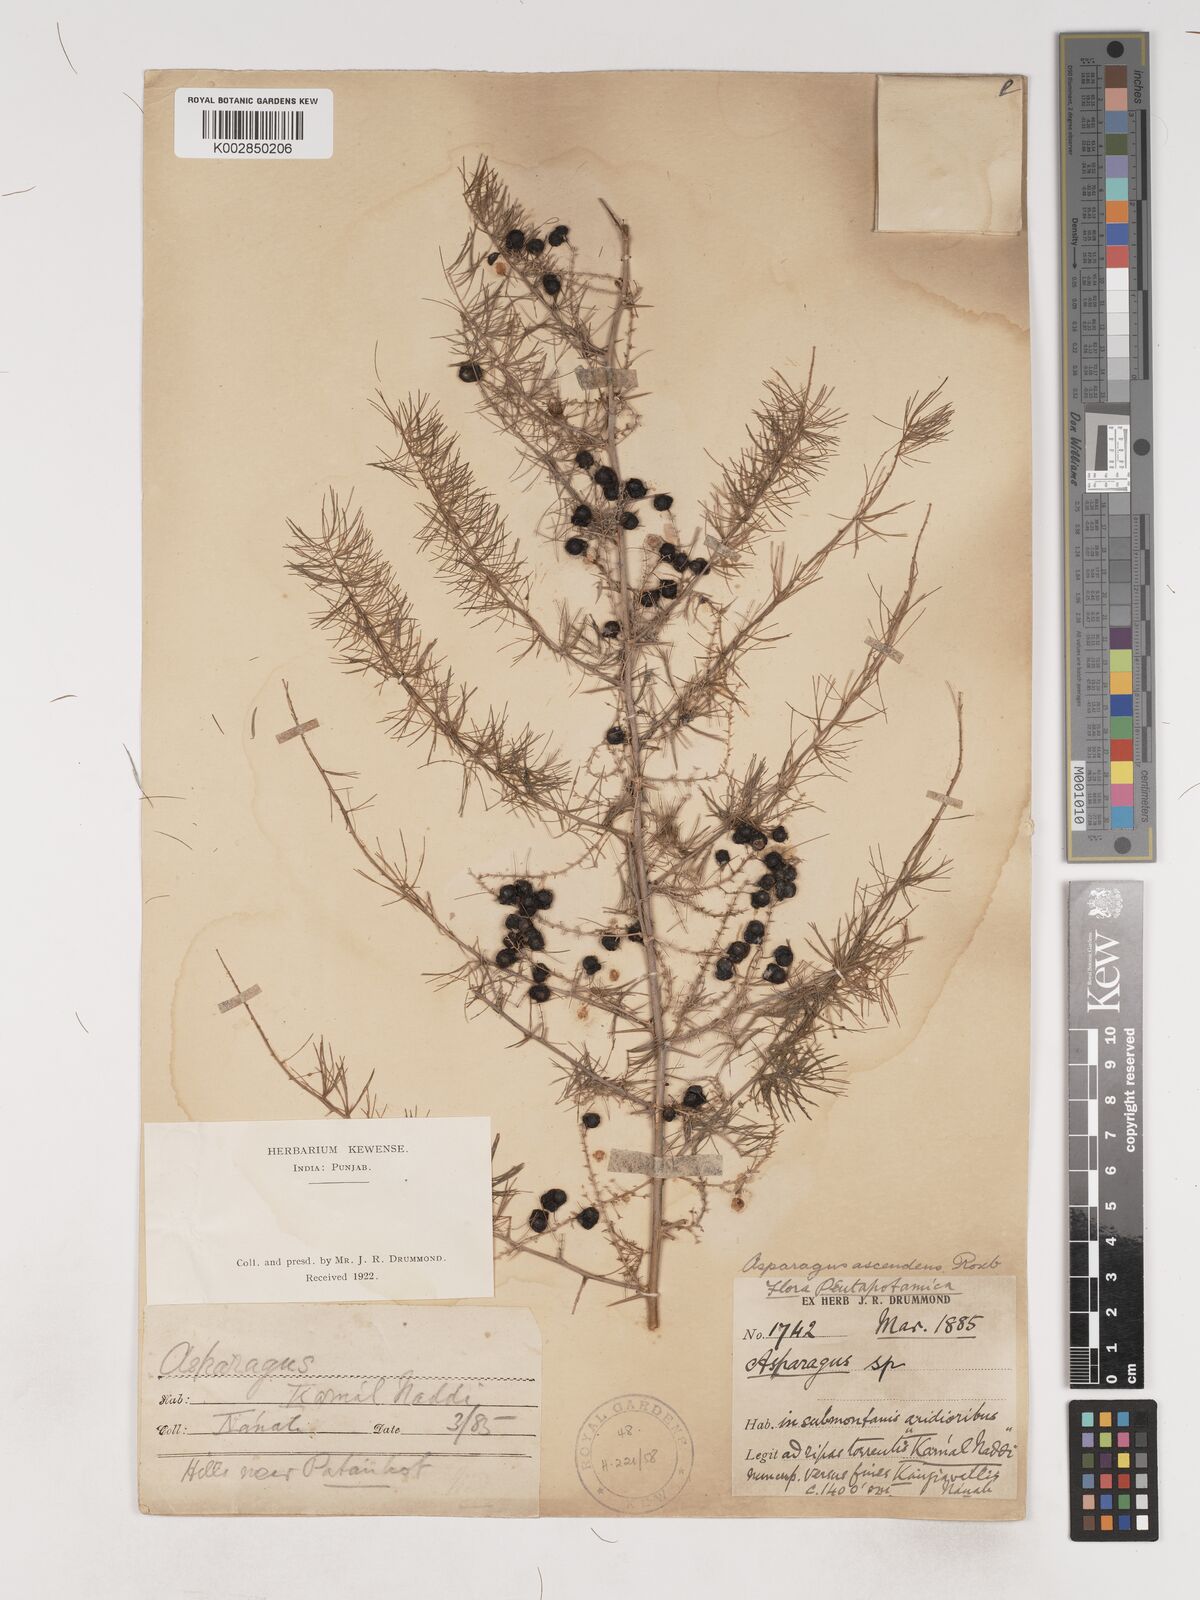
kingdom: Plantae
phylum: Tracheophyta
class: Liliopsida
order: Asparagales
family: Asparagaceae
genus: Asparagus
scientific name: Asparagus adscendens
